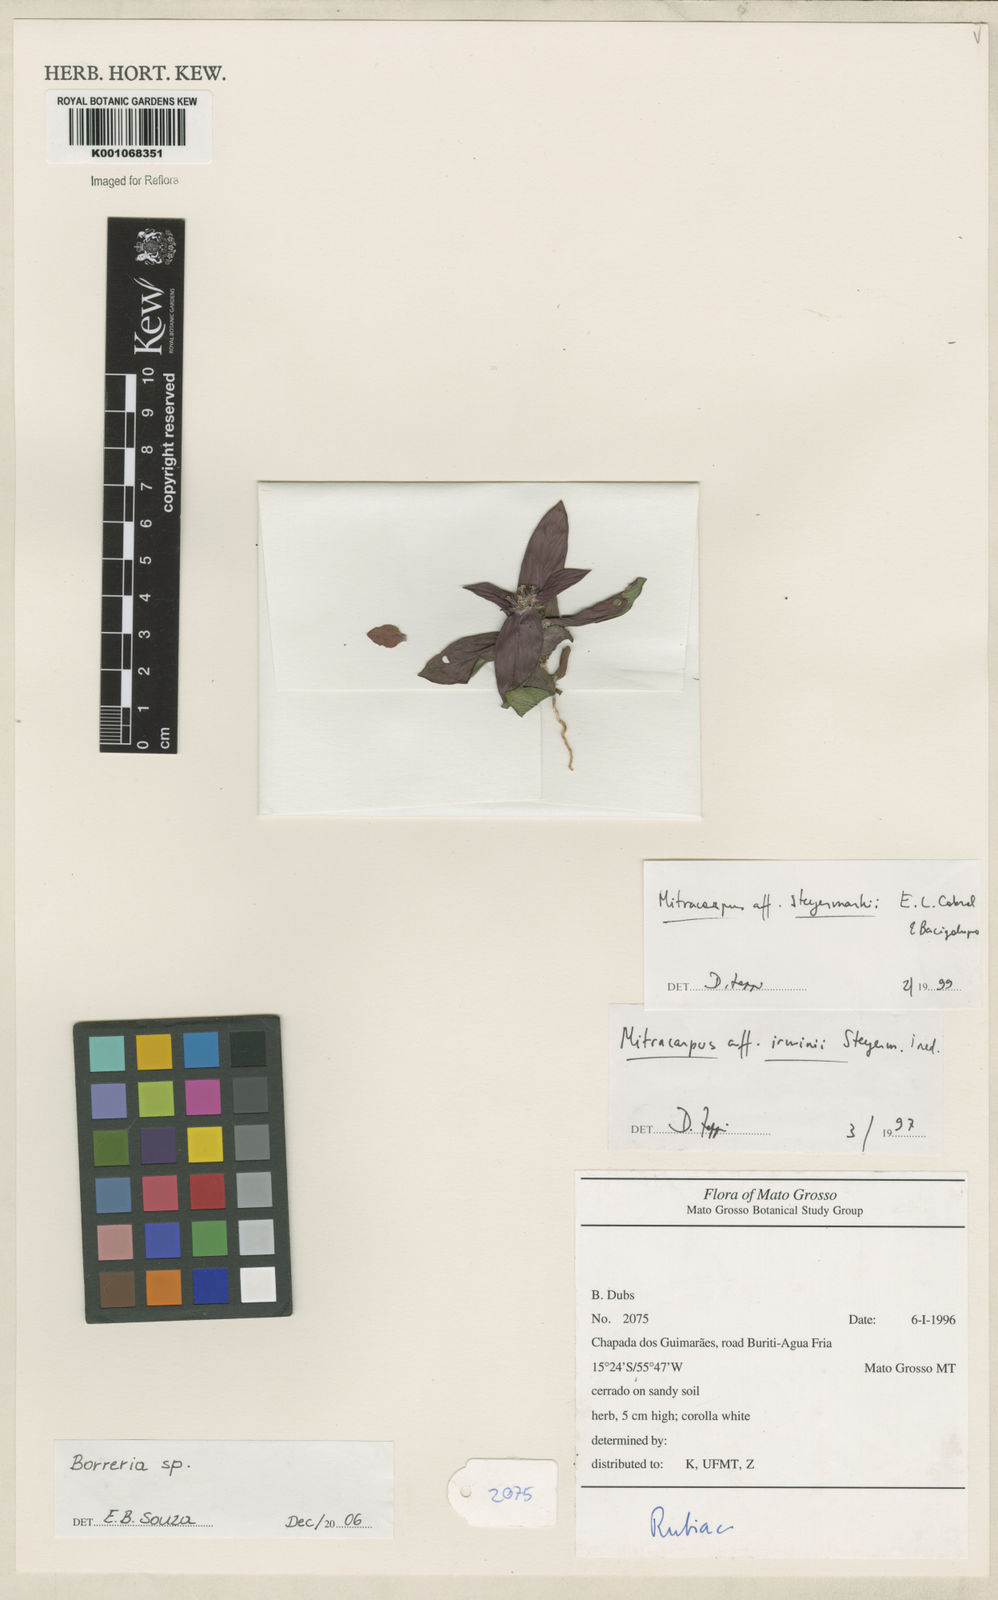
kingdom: Plantae
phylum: Tracheophyta
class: Magnoliopsida
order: Gentianales
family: Rubiaceae
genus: Spermacoce
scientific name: Spermacoce
